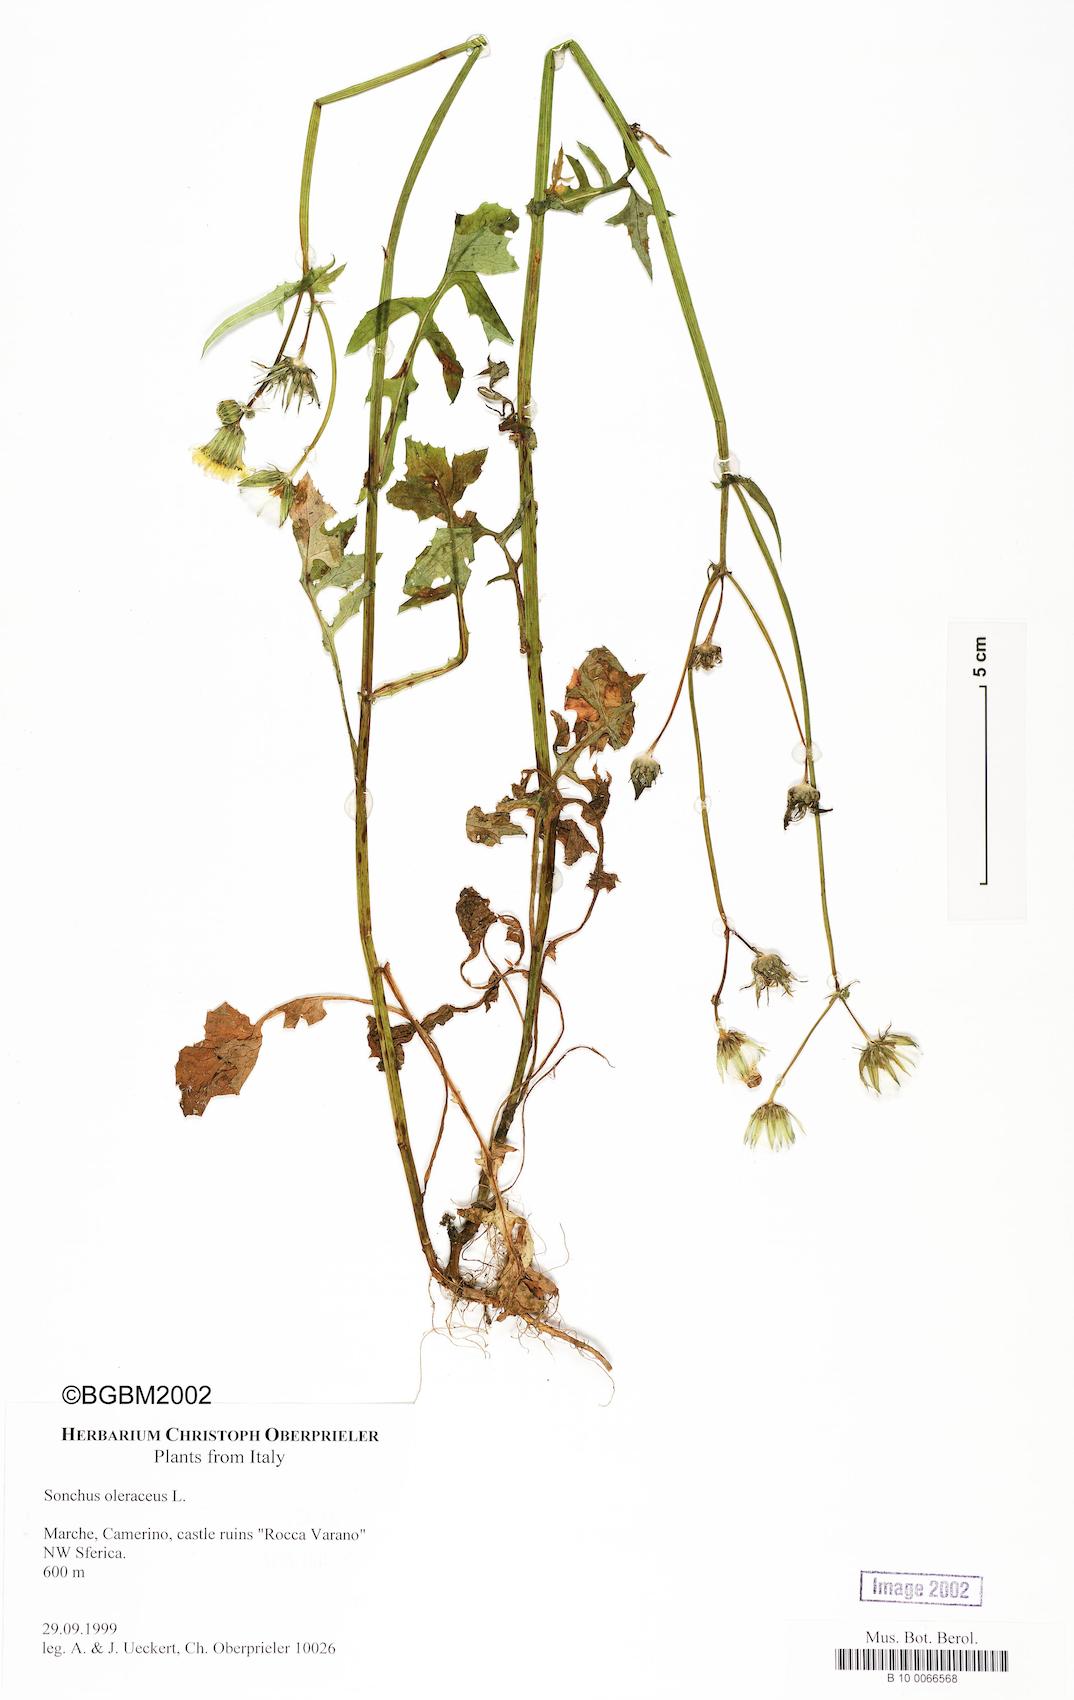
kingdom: Plantae
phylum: Tracheophyta
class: Magnoliopsida
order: Asterales
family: Asteraceae
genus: Sonchus
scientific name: Sonchus oleraceus
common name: Common sowthistle
